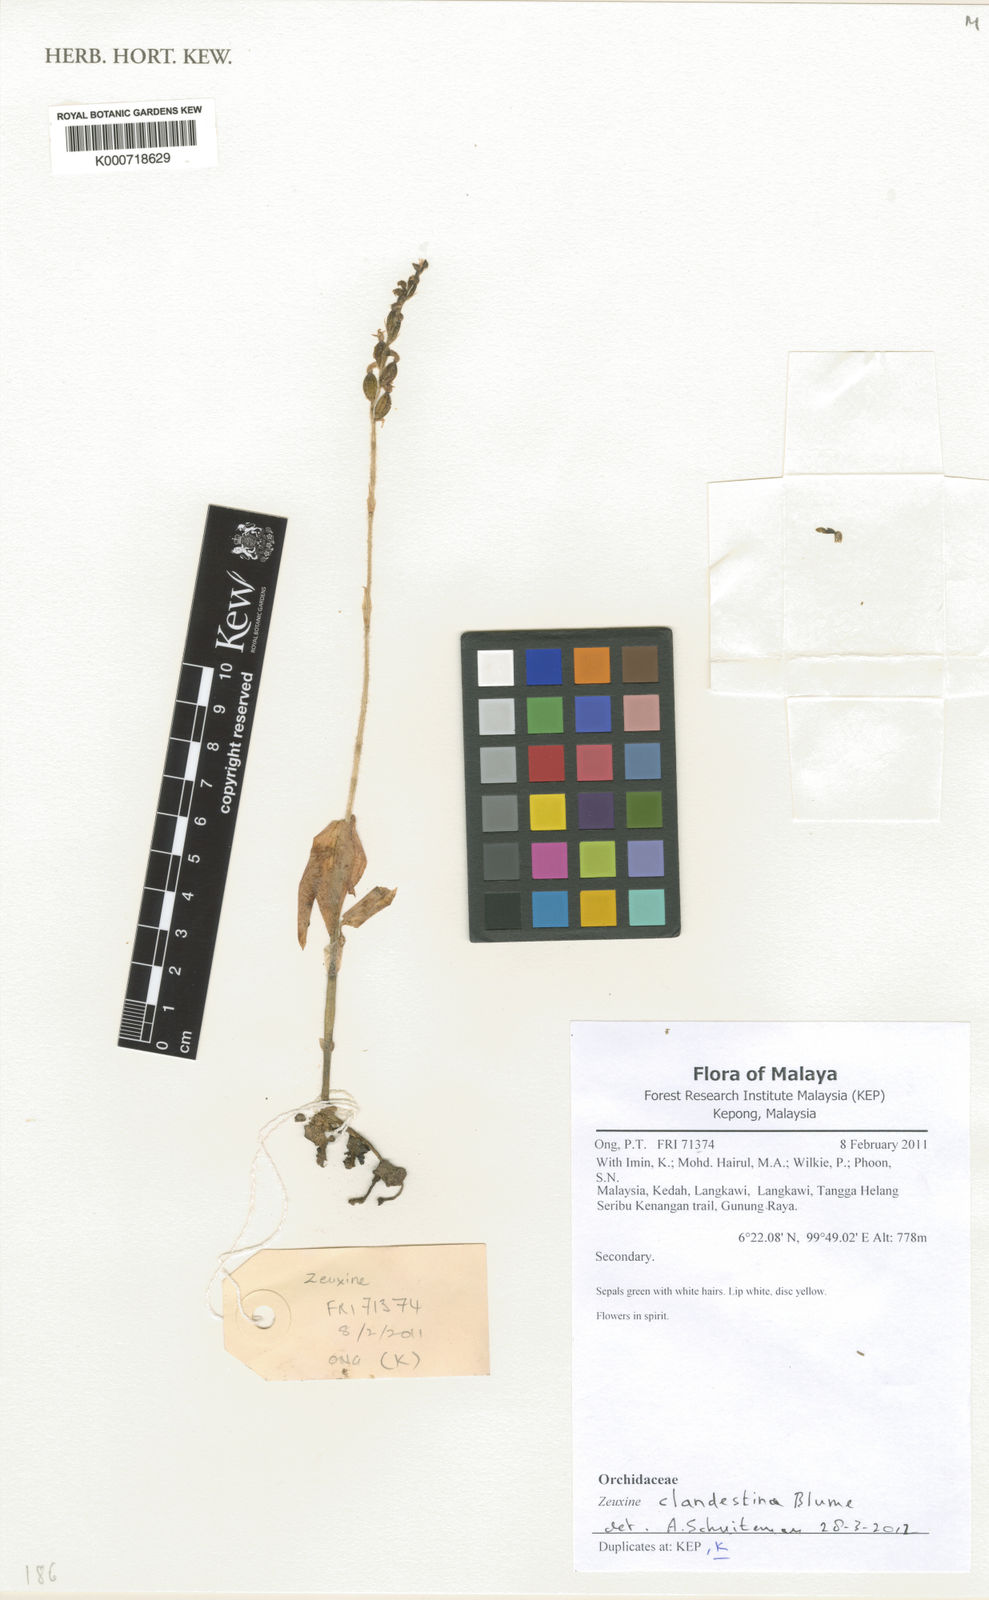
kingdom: Plantae
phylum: Tracheophyta
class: Liliopsida
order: Asparagales
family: Orchidaceae
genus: Zeuxine
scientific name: Zeuxine clandestina
